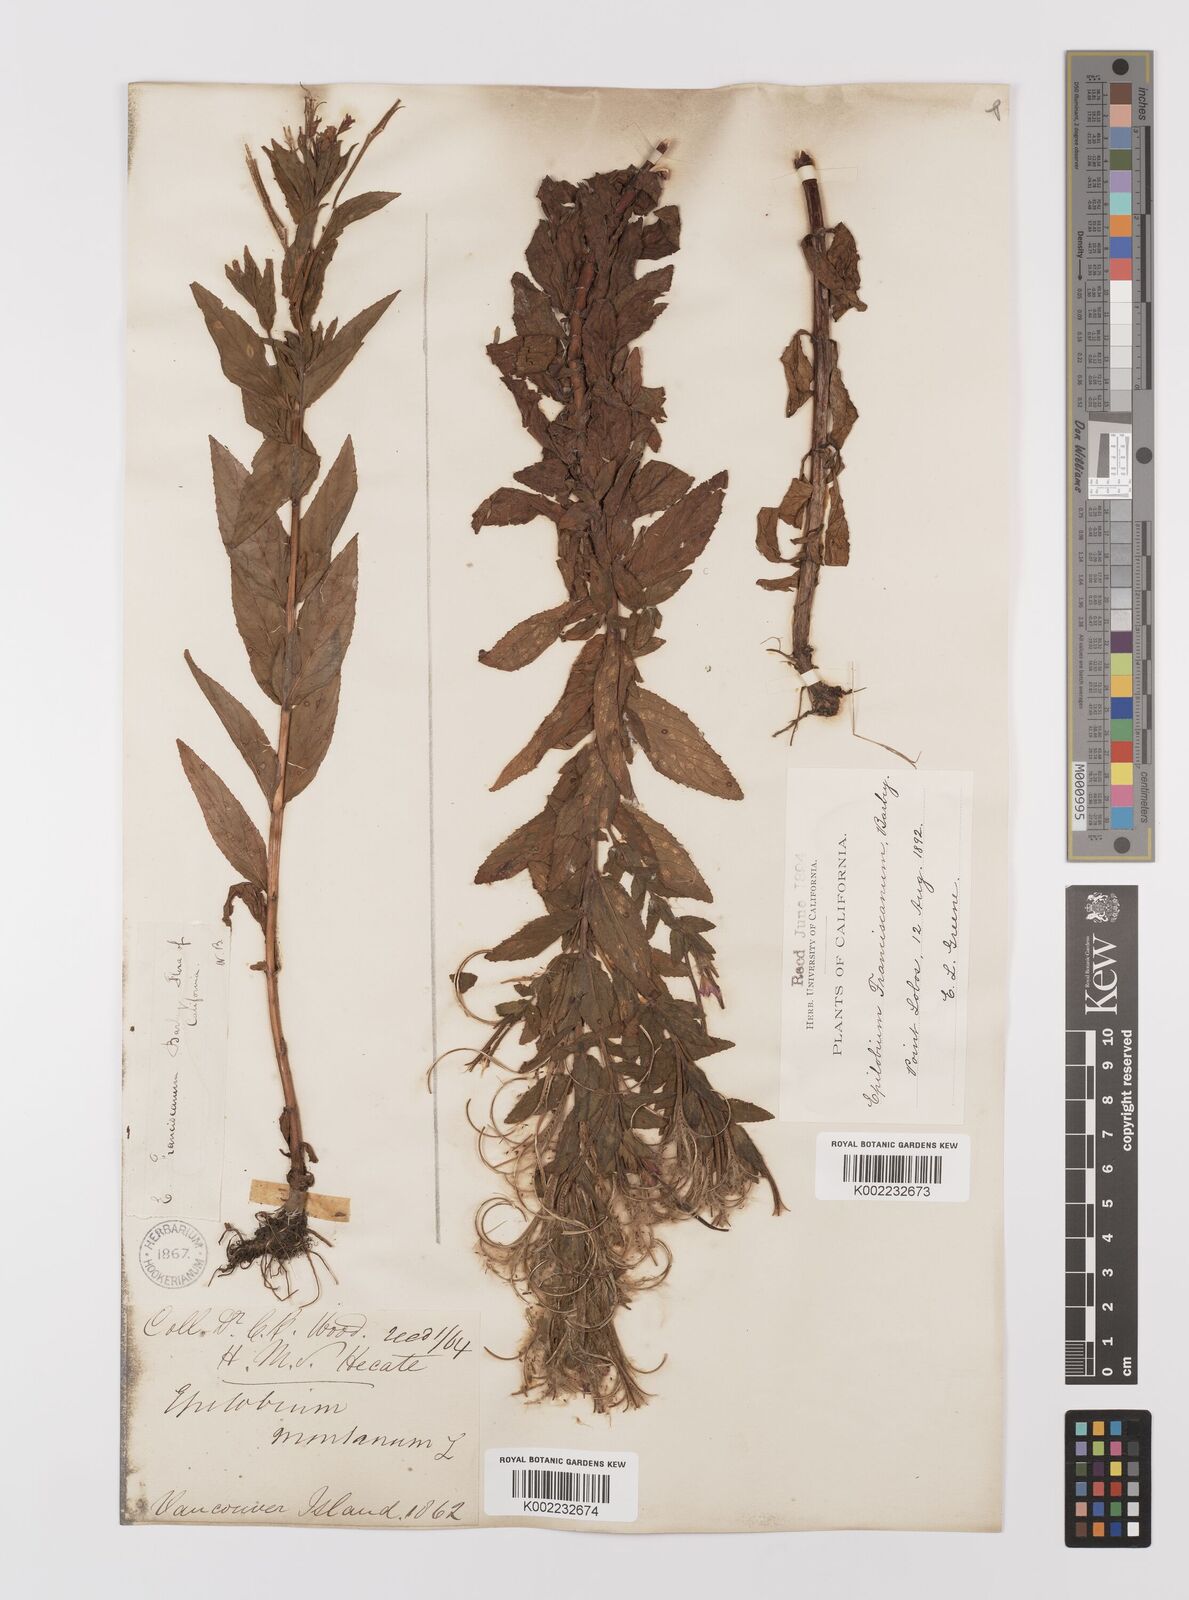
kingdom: Plantae
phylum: Tracheophyta
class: Magnoliopsida
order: Myrtales
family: Onagraceae
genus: Epilobium
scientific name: Epilobium ciliatum
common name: American willowherb
